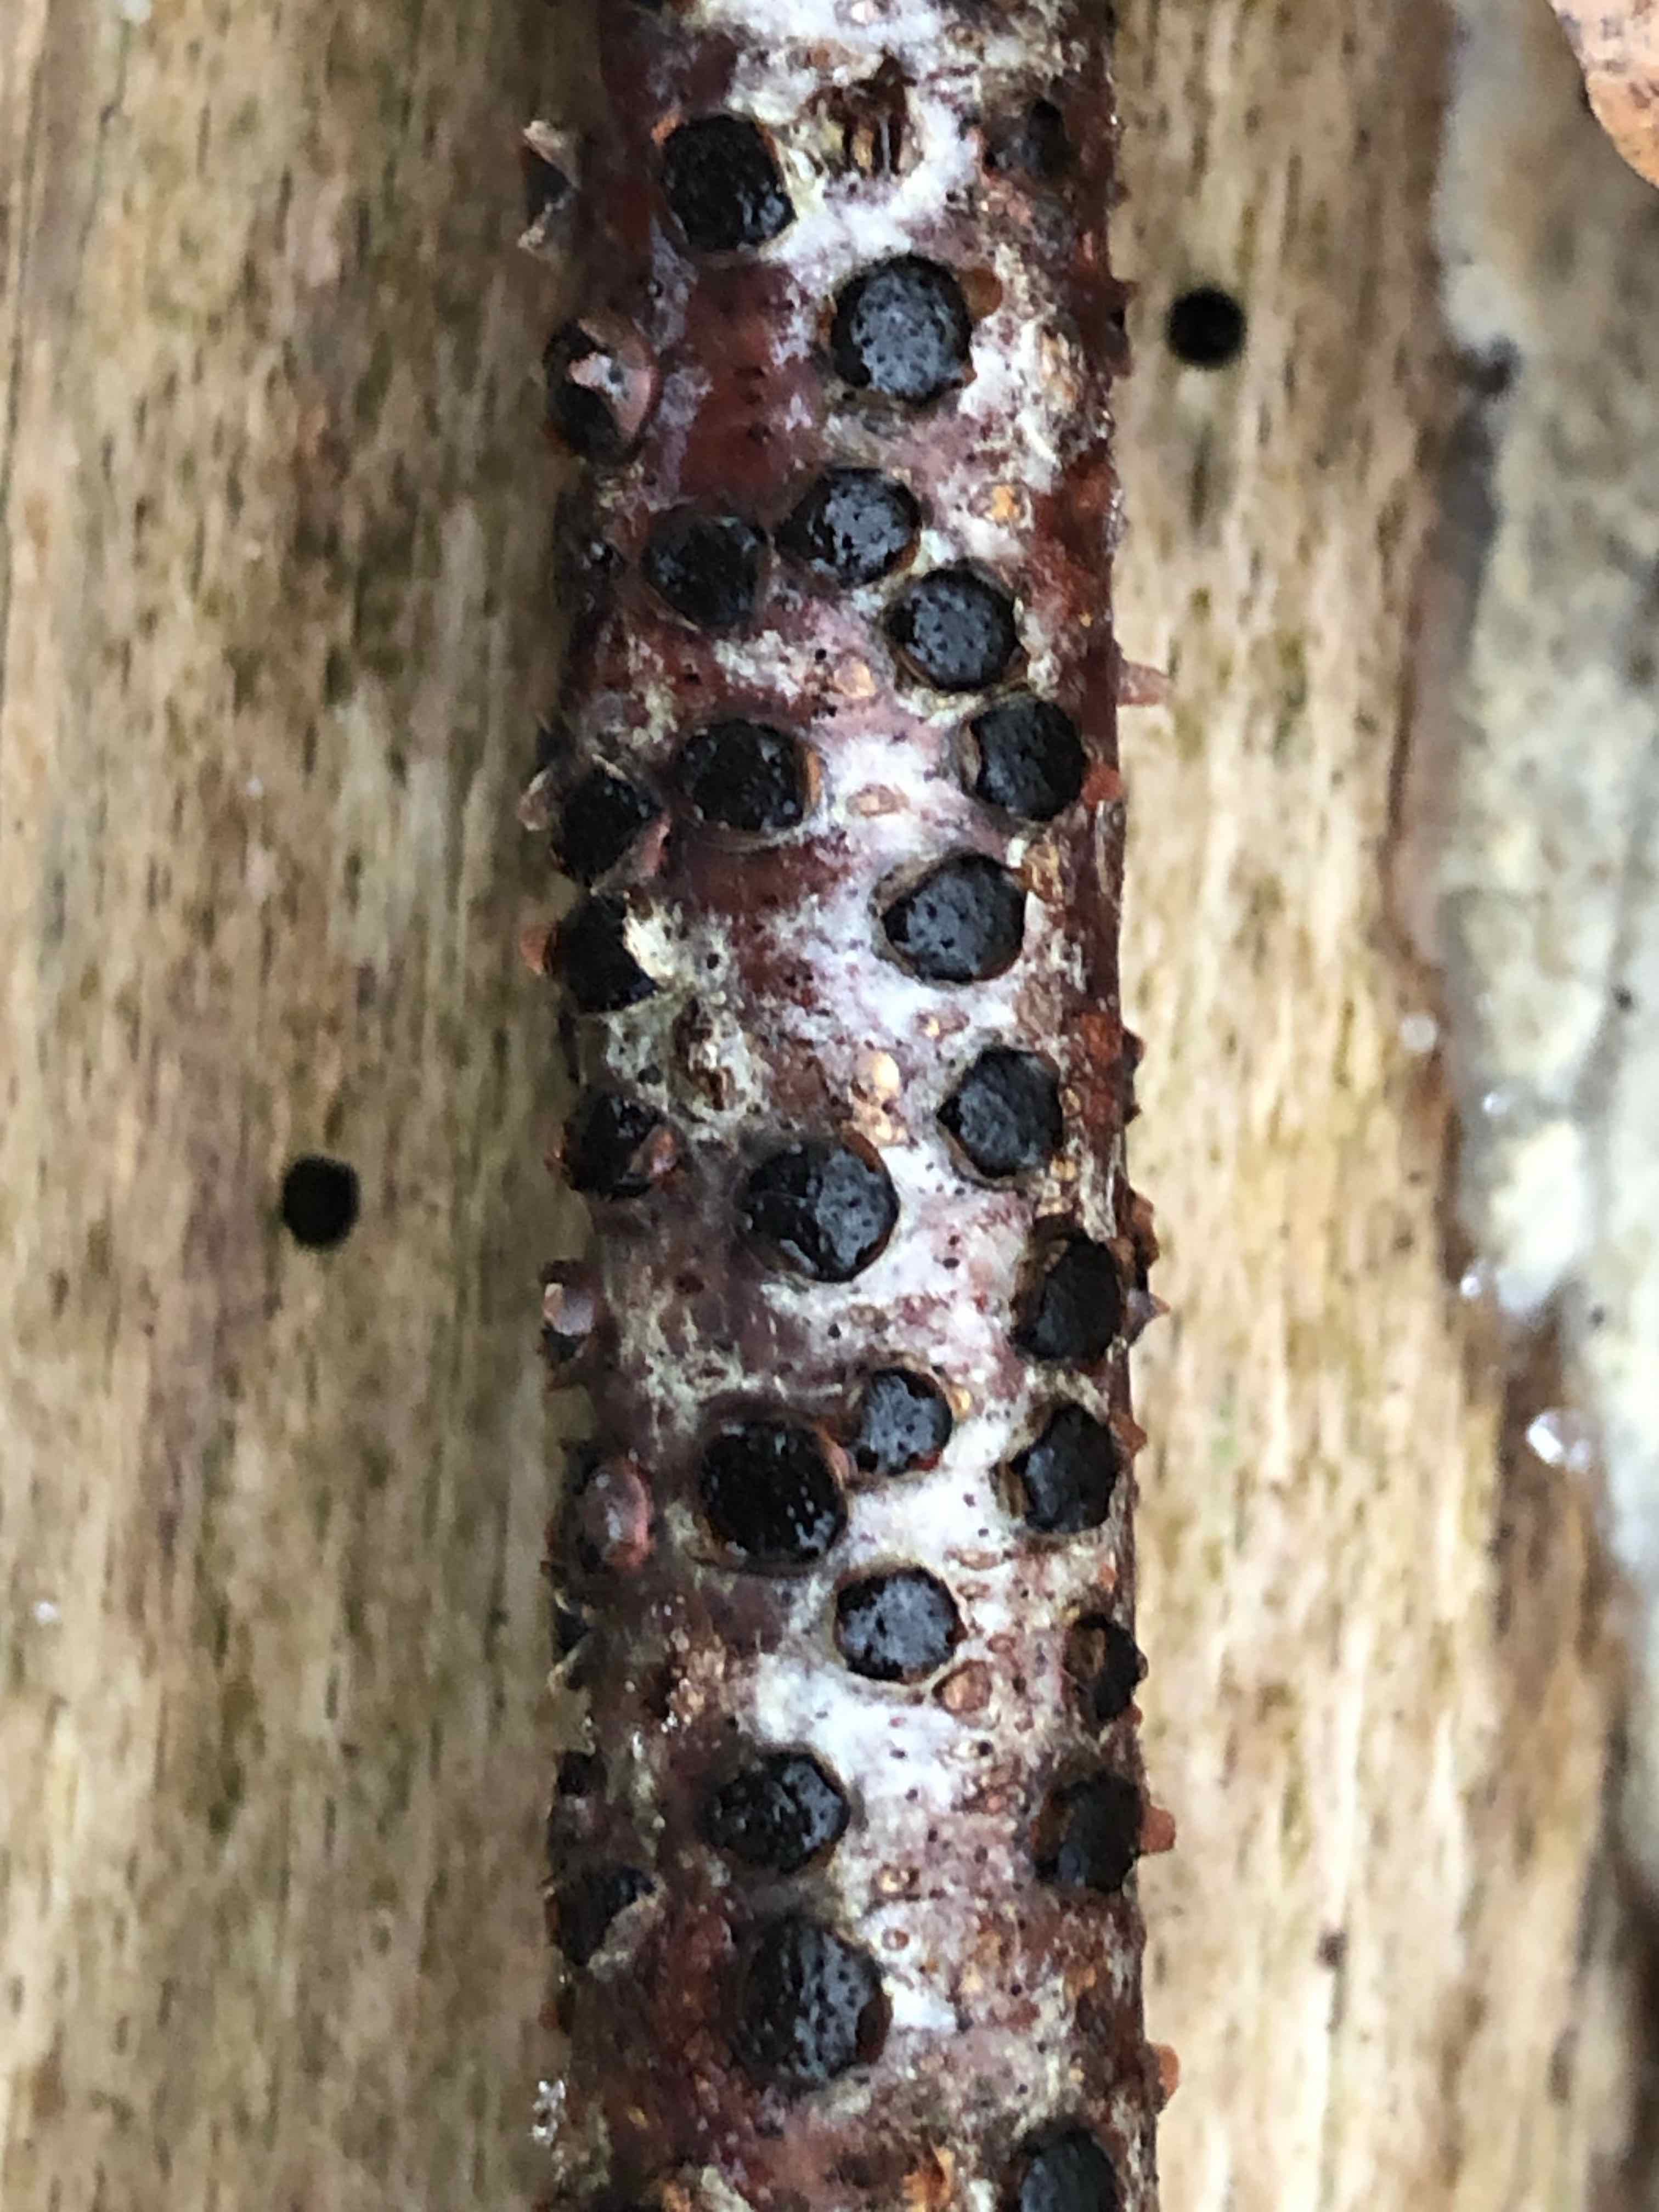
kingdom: Fungi
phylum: Ascomycota
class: Sordariomycetes
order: Xylariales
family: Diatrypaceae
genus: Diatrype
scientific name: Diatrype disciformis
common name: kant-kulskorpe
